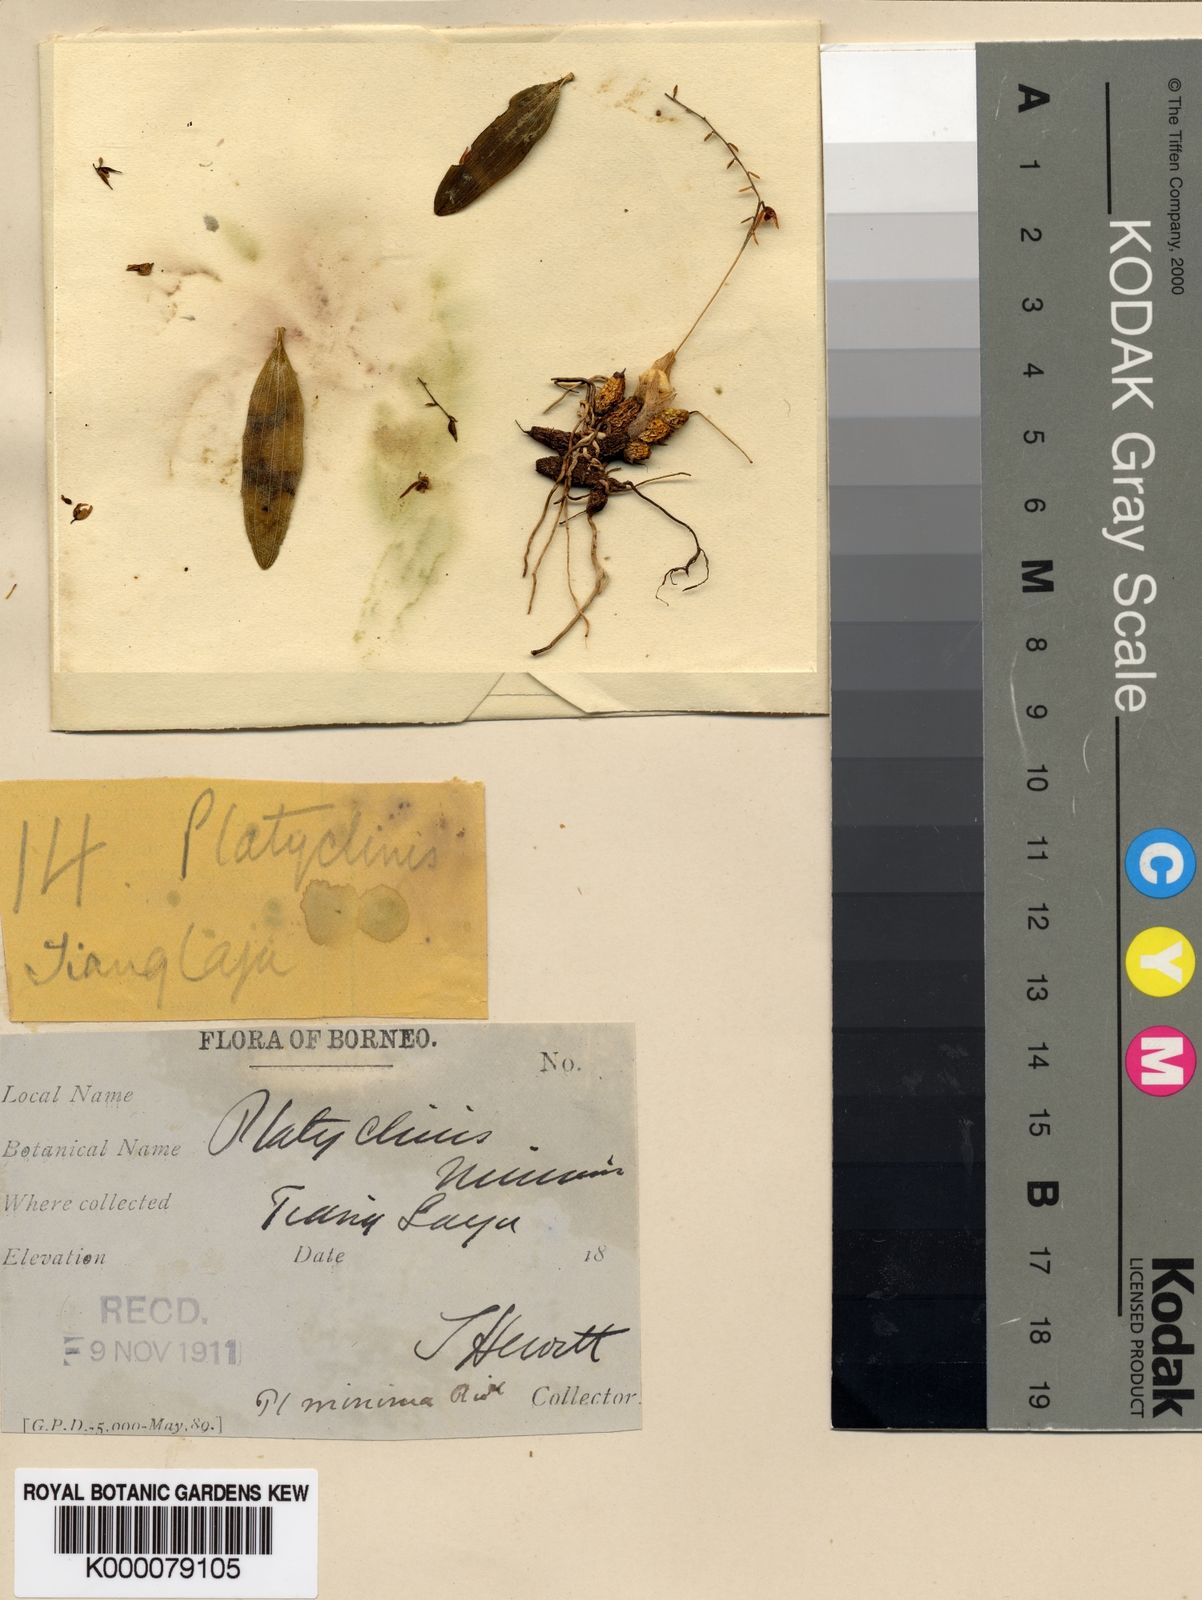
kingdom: Plantae
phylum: Tracheophyta
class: Liliopsida
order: Asparagales
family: Orchidaceae
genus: Coelogyne
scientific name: Coelogyne globigera
